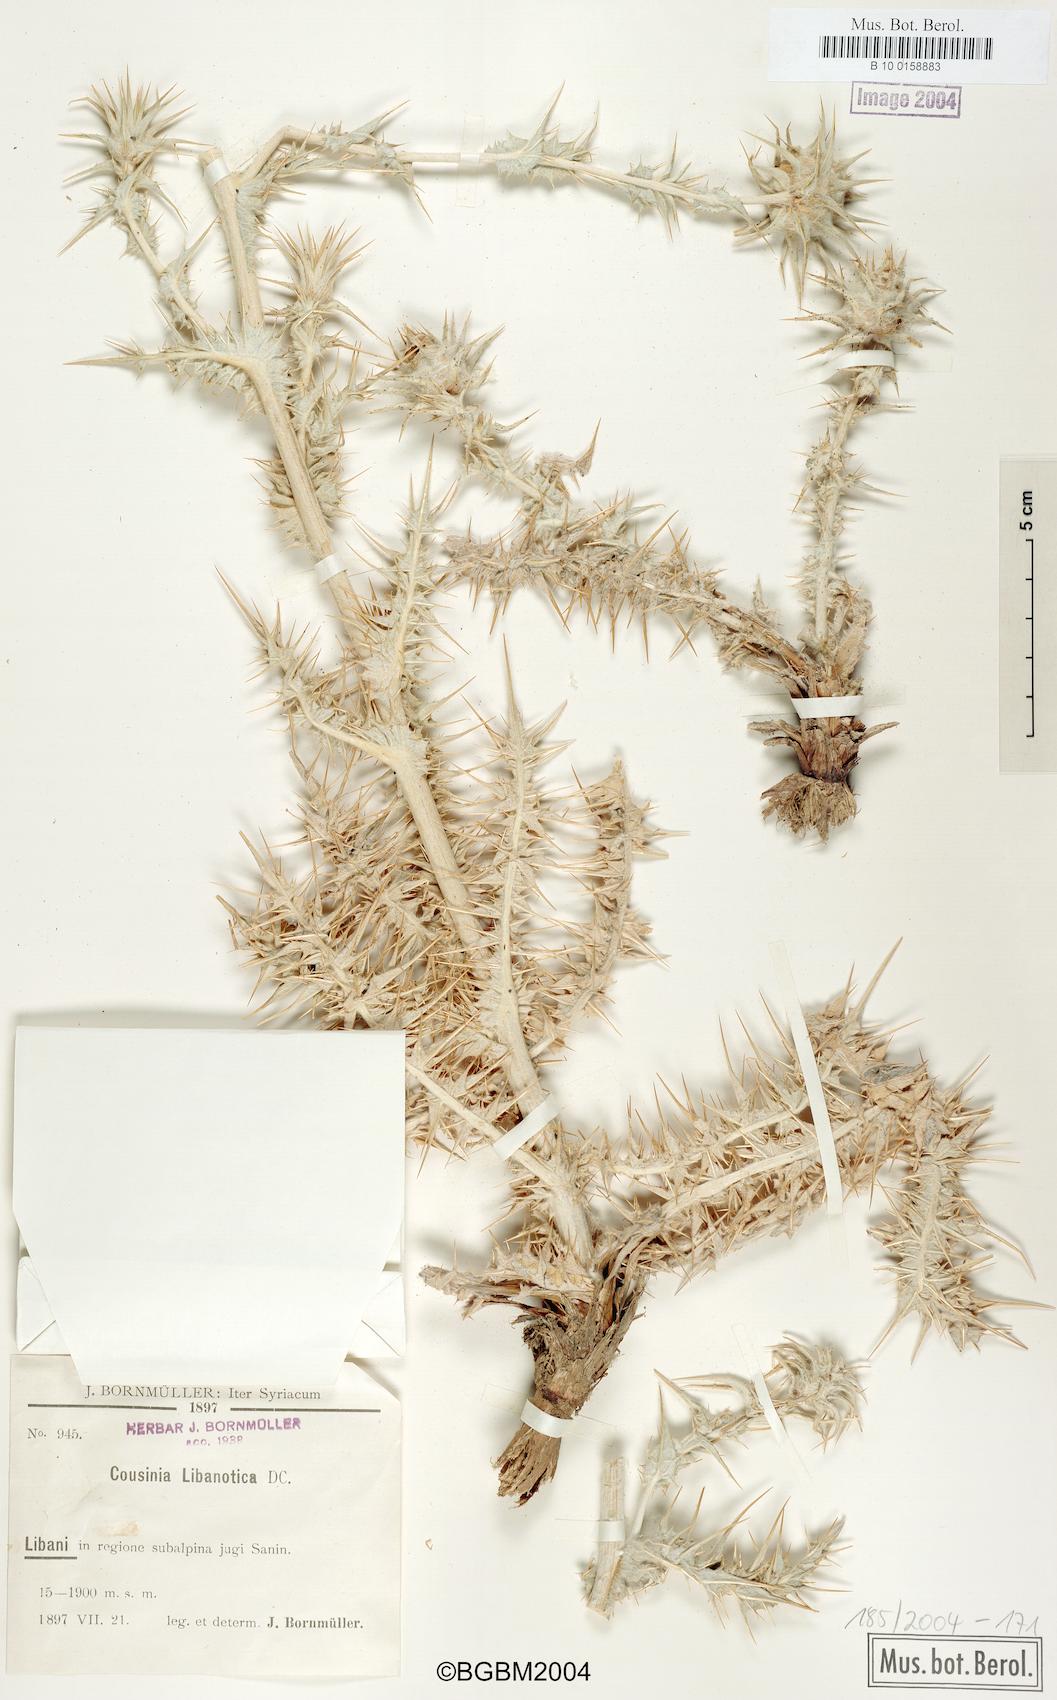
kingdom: Plantae
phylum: Tracheophyta
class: Magnoliopsida
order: Asterales
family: Asteraceae
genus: Cousinia
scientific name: Cousinia libanotica
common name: Lebanon cousinia
